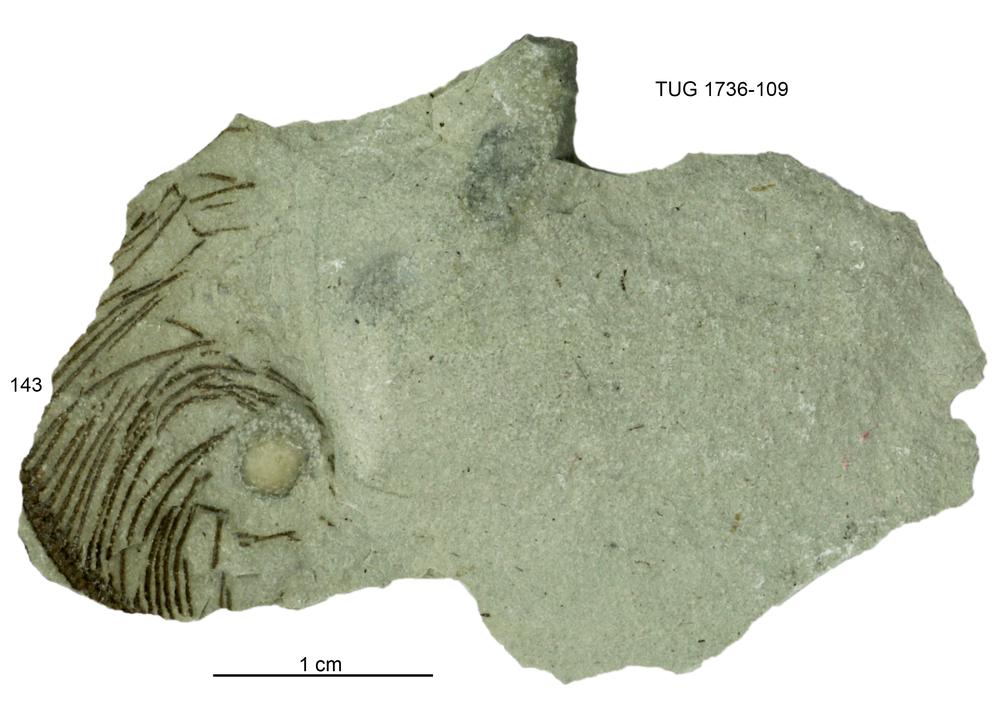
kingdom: Animalia
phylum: Echinodermata
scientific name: Echinodermata
